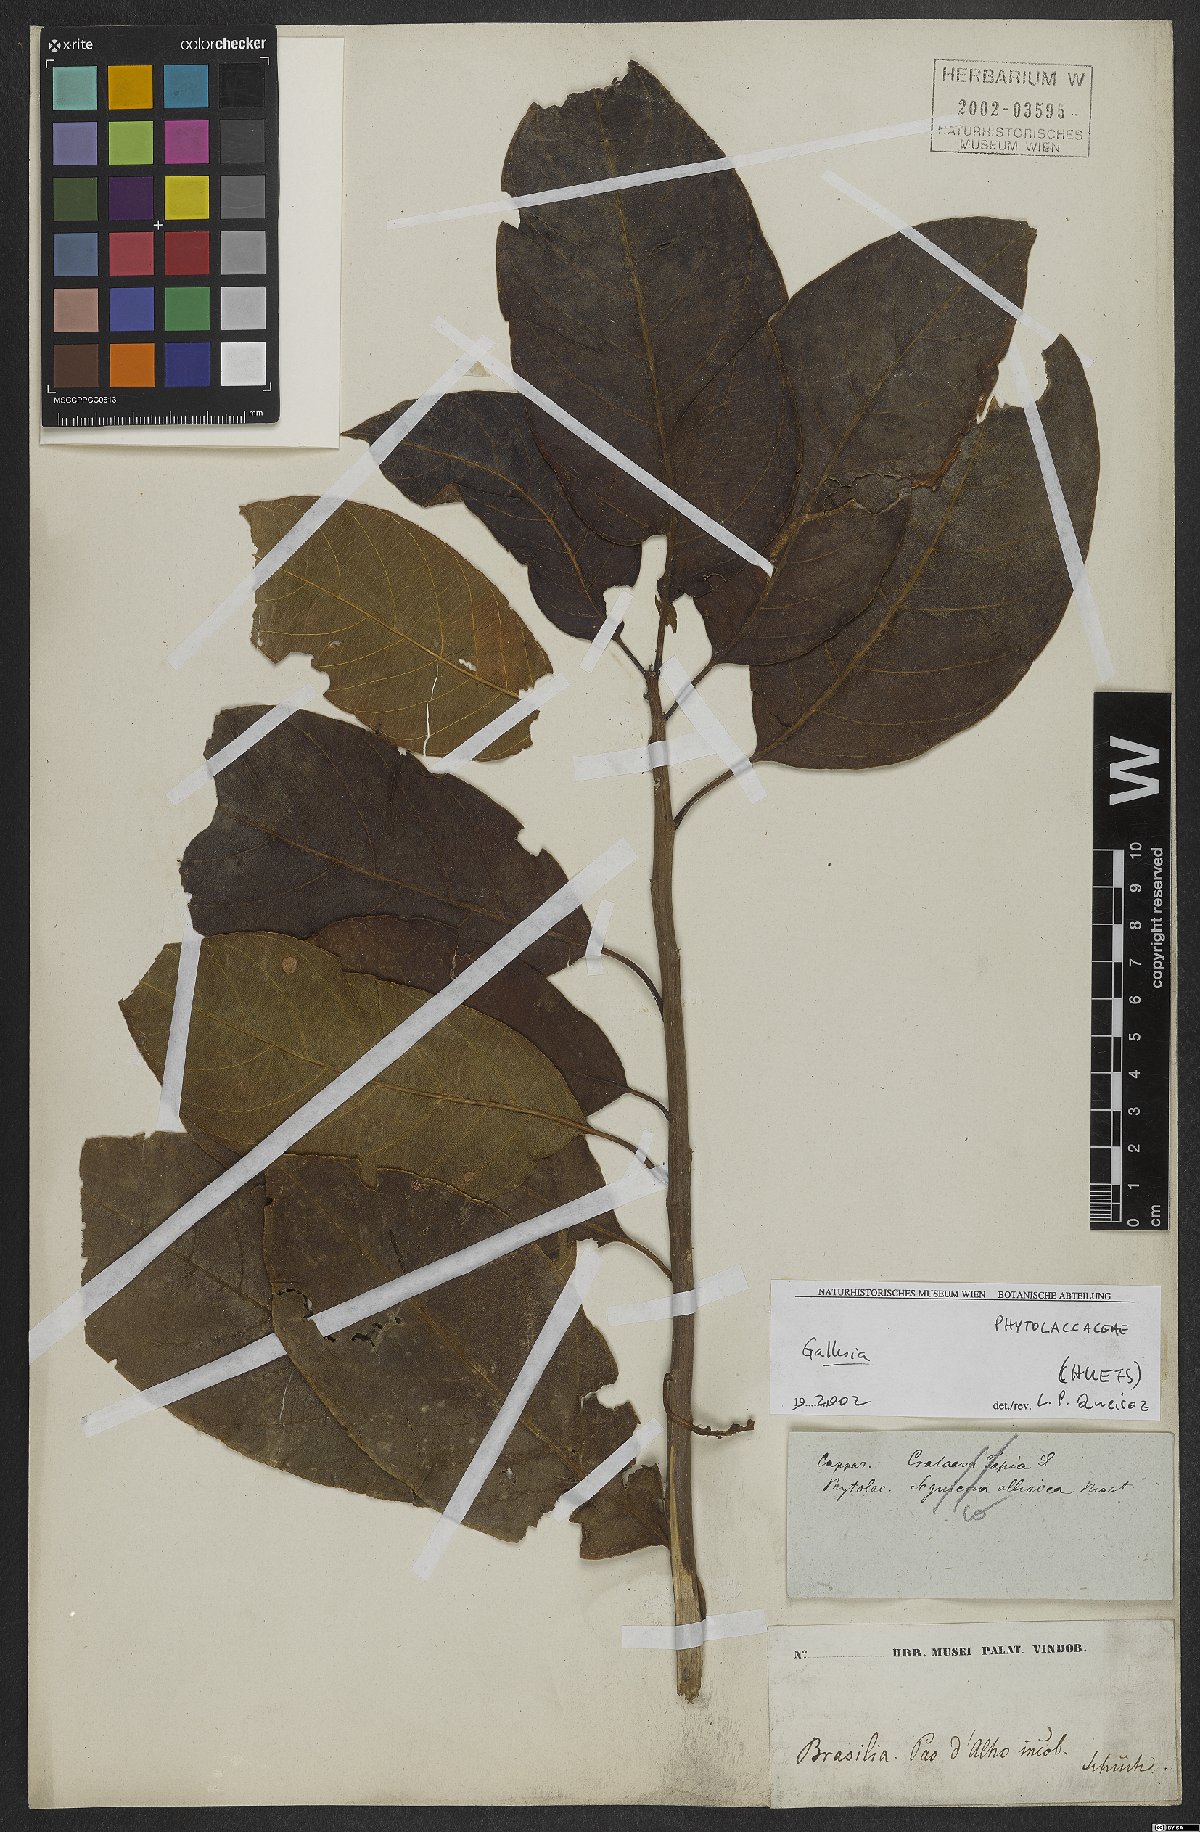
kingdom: Plantae
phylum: Tracheophyta
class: Magnoliopsida
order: Caryophyllales
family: Phytolaccaceae
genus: Gallesia
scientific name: Gallesia
